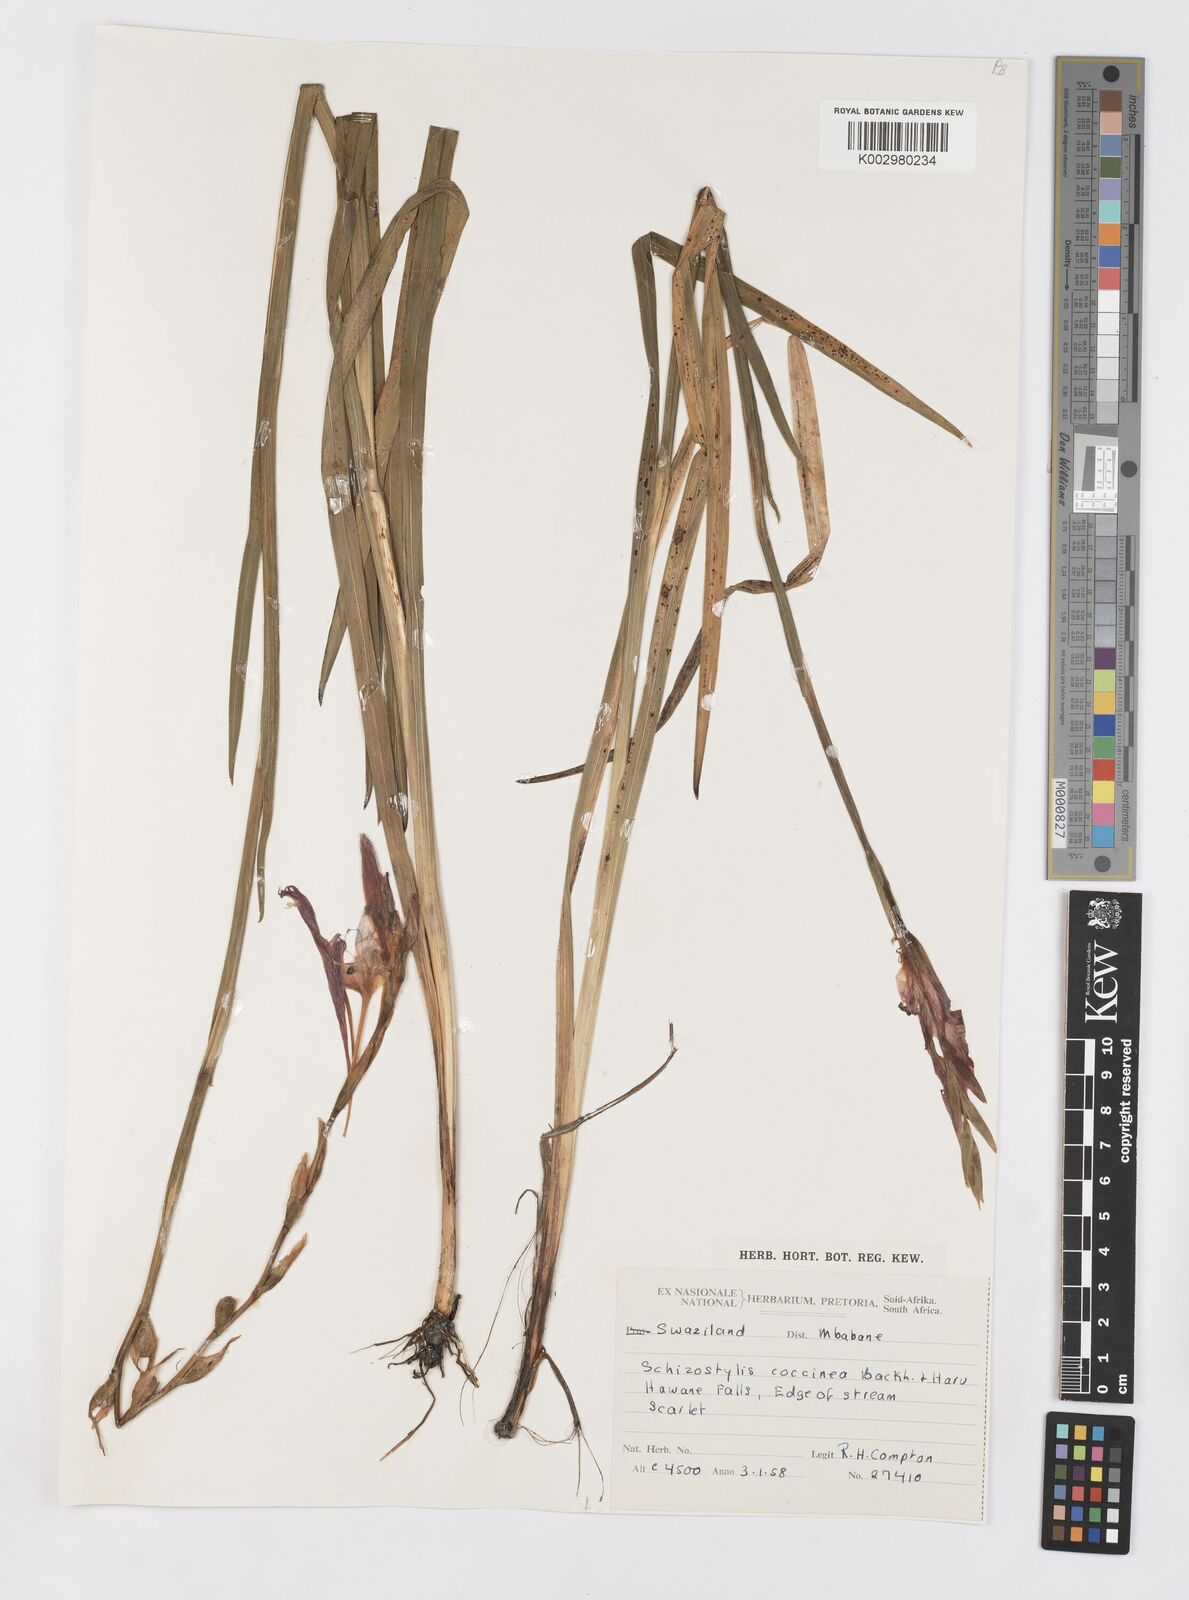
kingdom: Plantae
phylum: Tracheophyta
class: Liliopsida
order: Asparagales
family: Iridaceae
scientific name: Iridaceae
